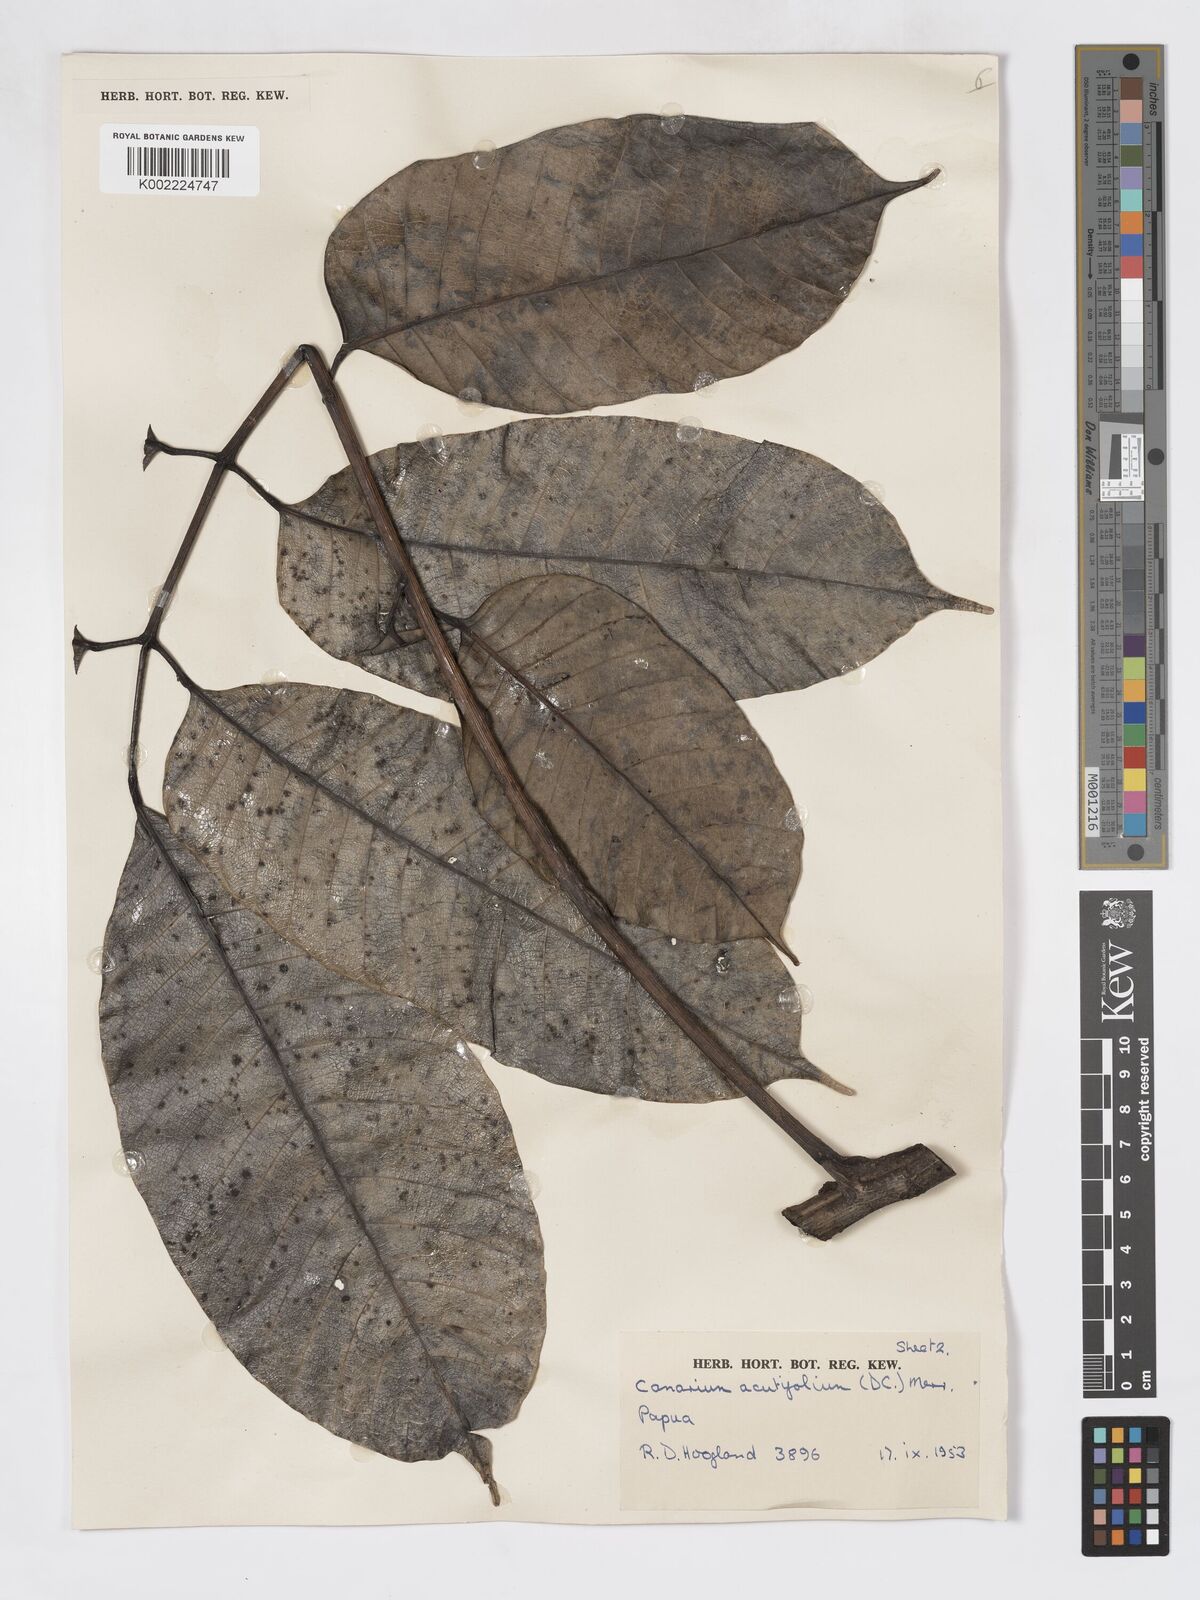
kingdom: Plantae
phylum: Tracheophyta
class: Magnoliopsida
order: Sapindales
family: Burseraceae
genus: Canarium
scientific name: Canarium acutifolium
